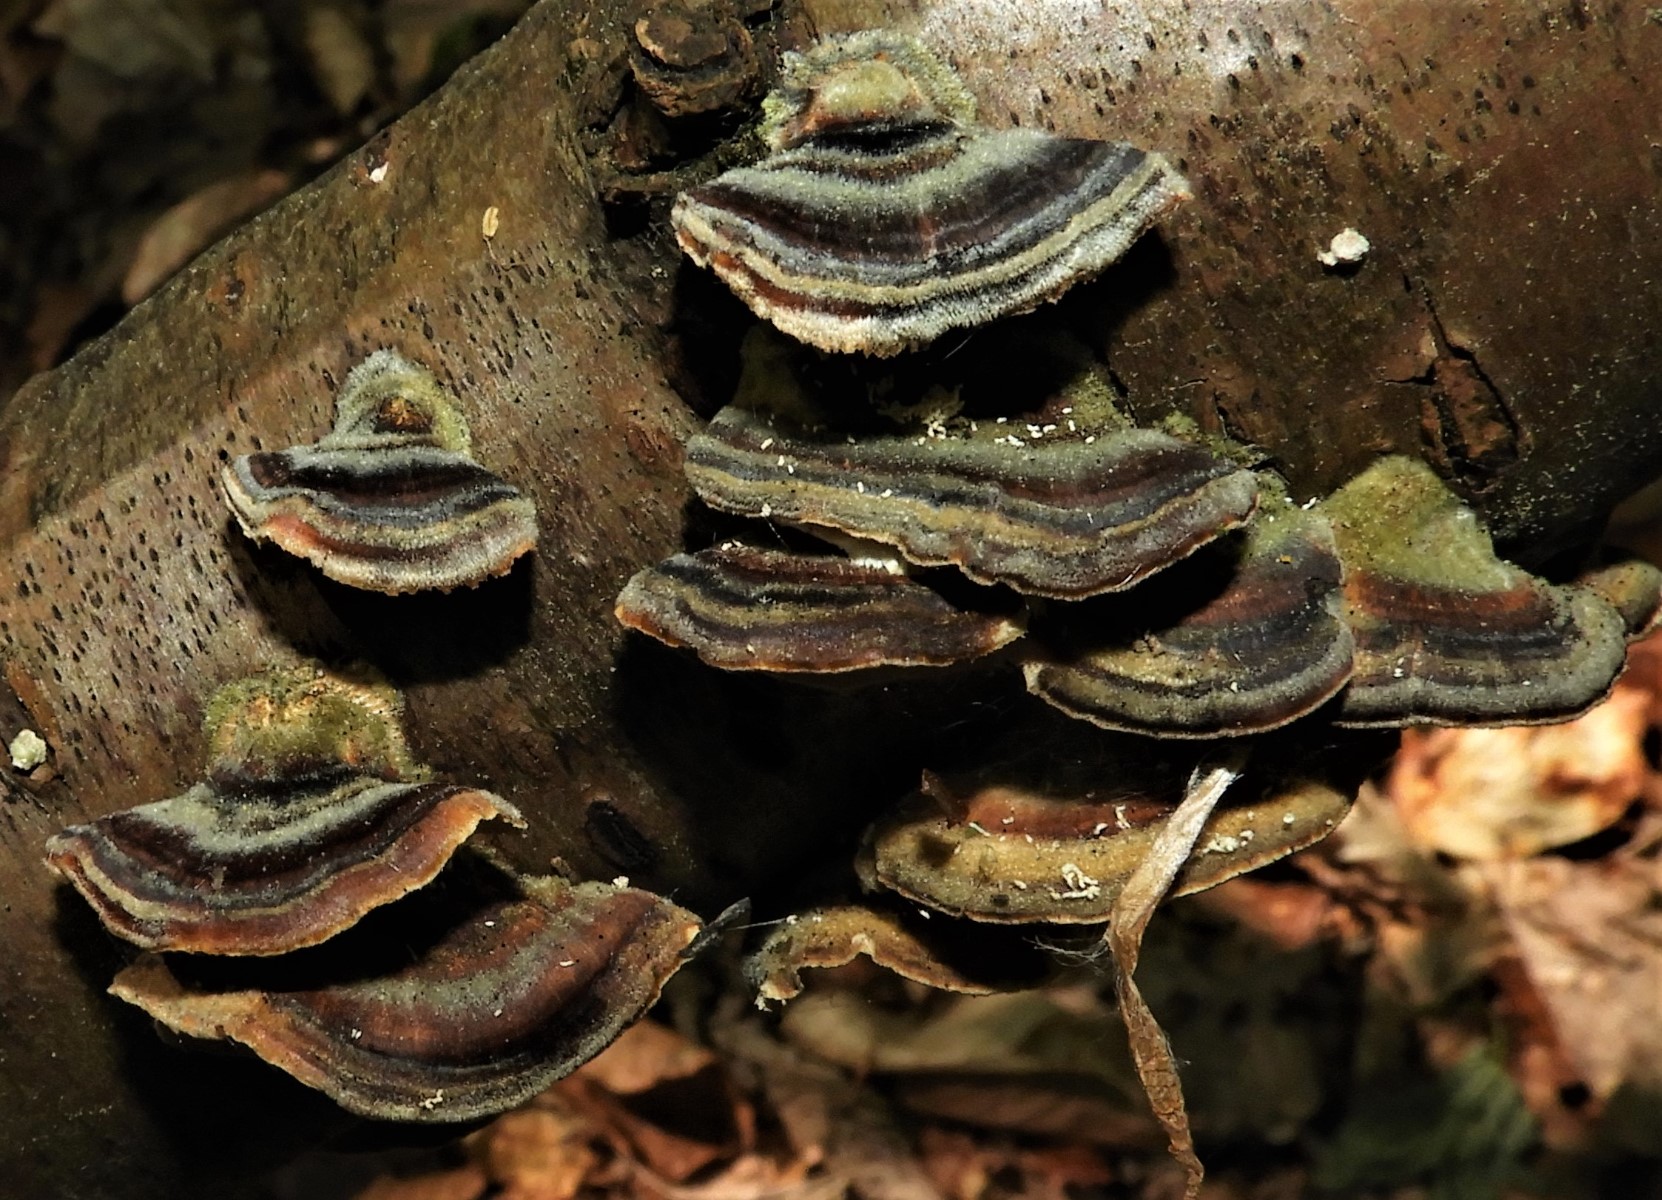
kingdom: Fungi
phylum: Basidiomycota
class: Agaricomycetes
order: Polyporales
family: Polyporaceae
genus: Trametes
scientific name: Trametes versicolor
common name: broget læderporesvamp
